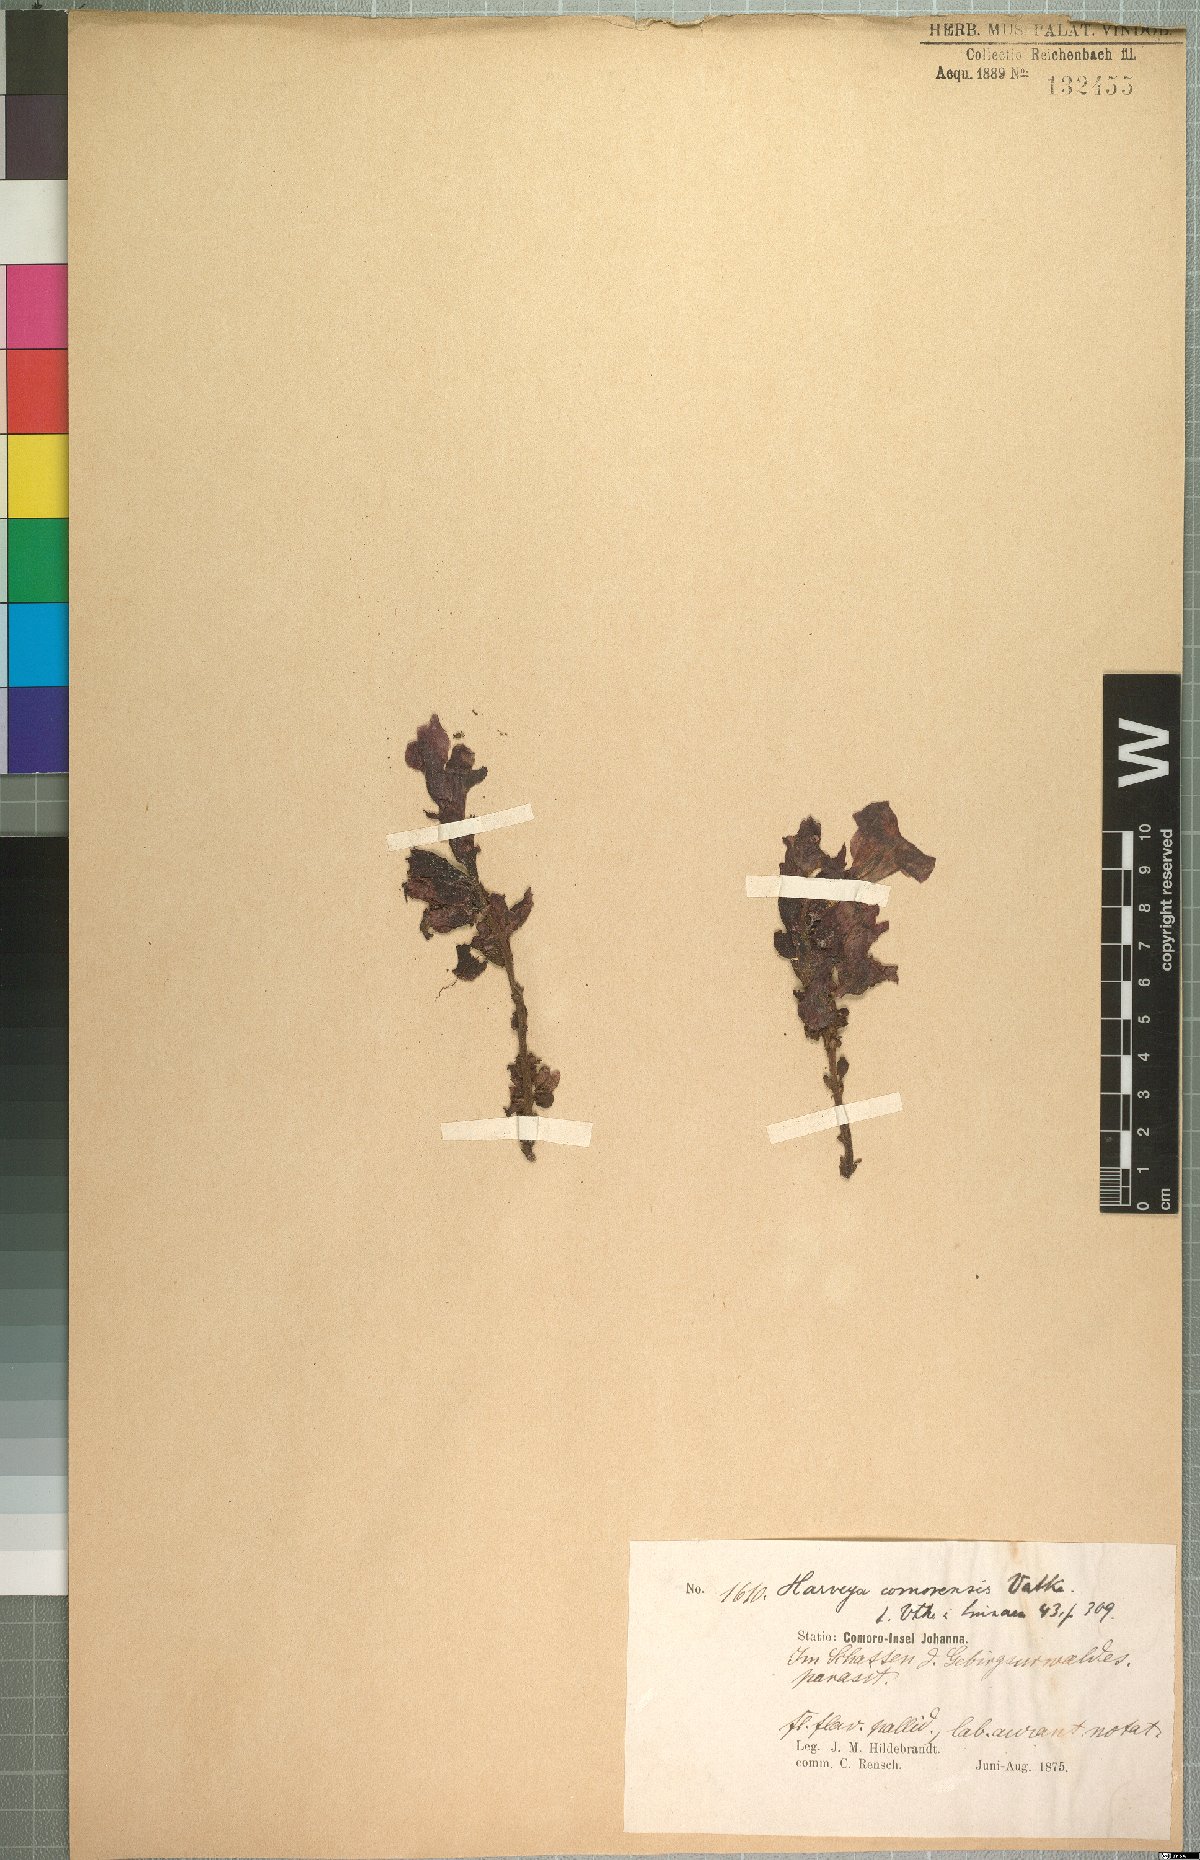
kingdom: Plantae
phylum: Tracheophyta
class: Magnoliopsida
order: Lamiales
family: Orobanchaceae
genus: Harveya
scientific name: Harveya comorensis
